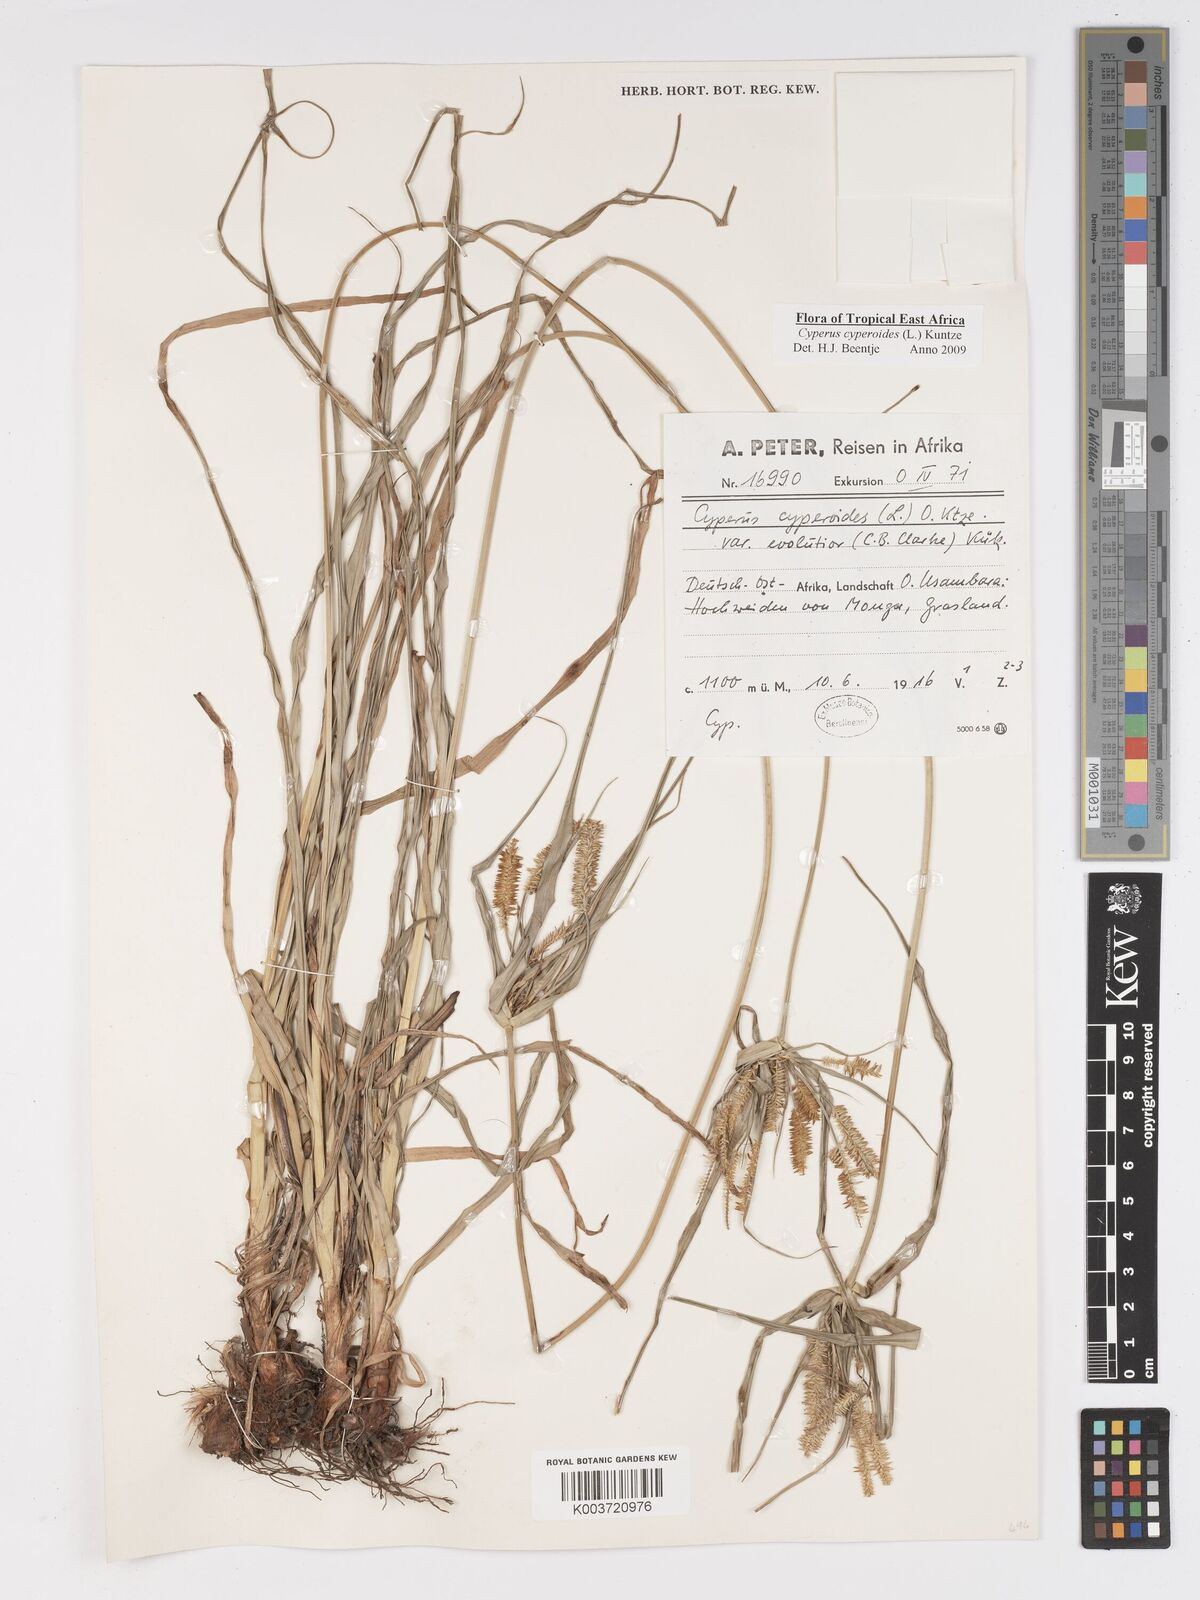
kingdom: Plantae
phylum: Tracheophyta
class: Liliopsida
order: Poales
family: Cyperaceae
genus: Cyperus
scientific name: Cyperus cyperoides
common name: Pacific island flat sedge
